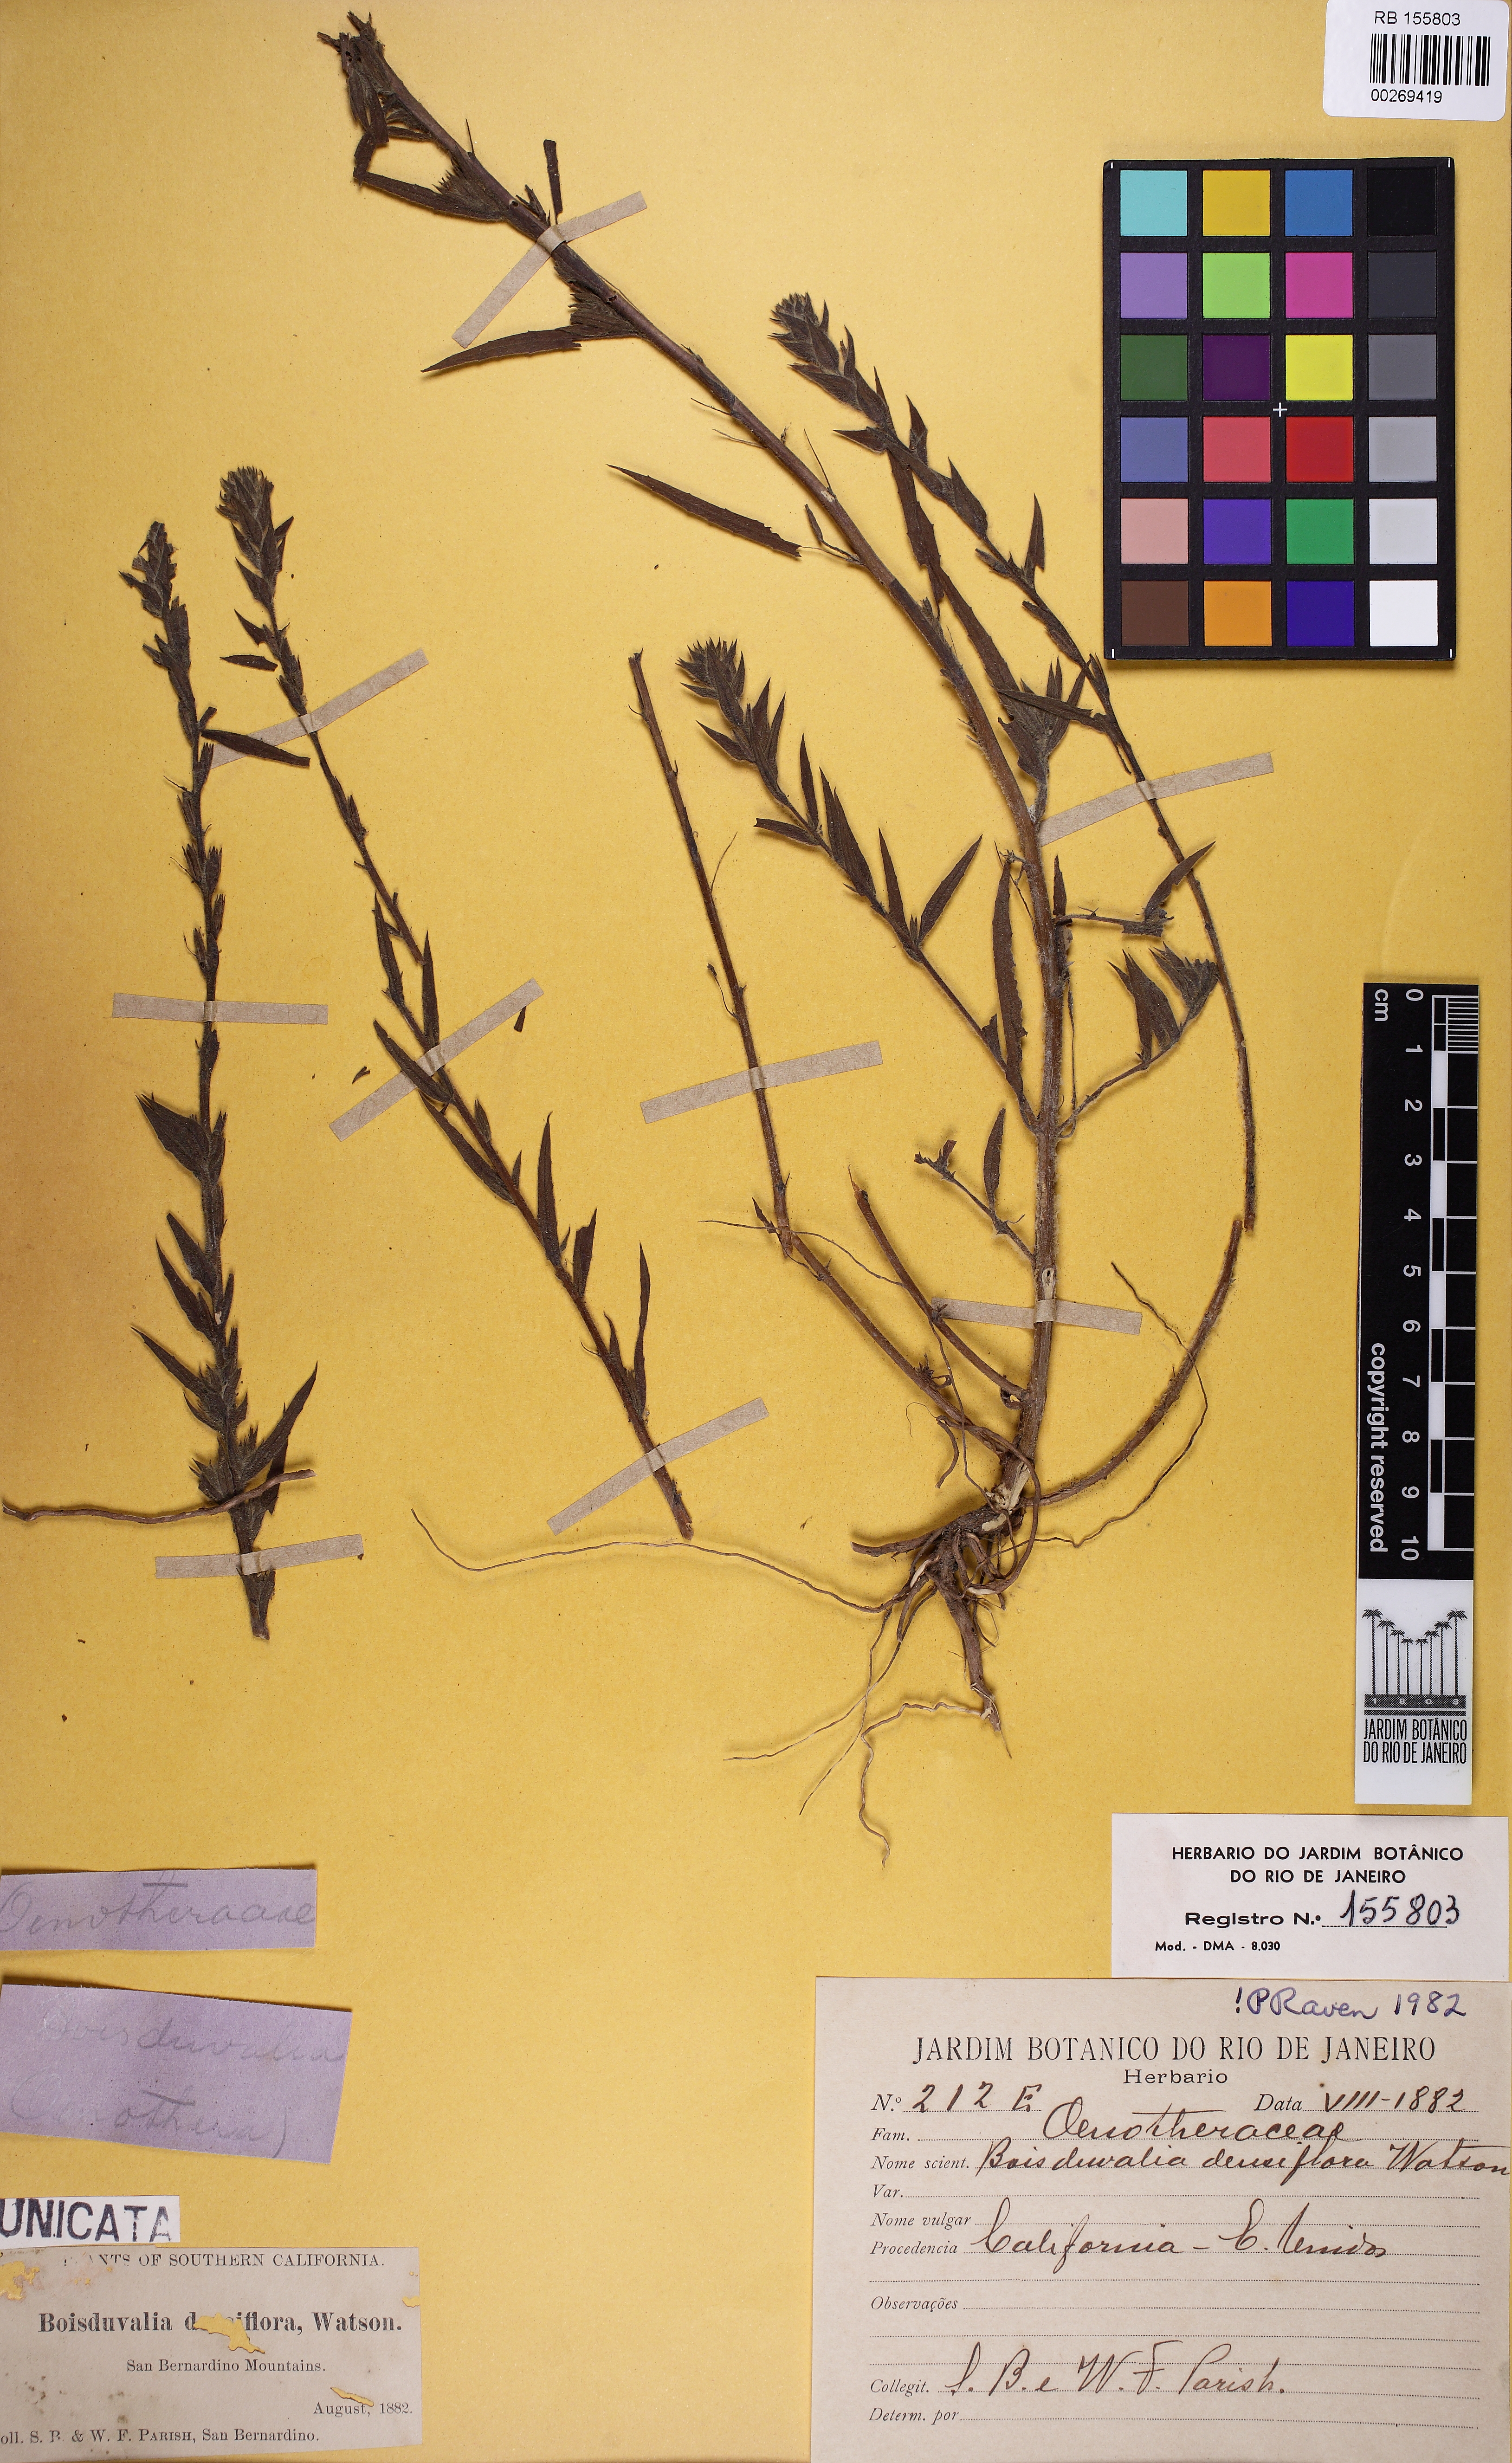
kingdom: Plantae
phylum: Tracheophyta
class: Magnoliopsida
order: Myrtales
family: Onagraceae
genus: Epilobium
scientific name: Epilobium densiflorum
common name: Dense spike-primrose
